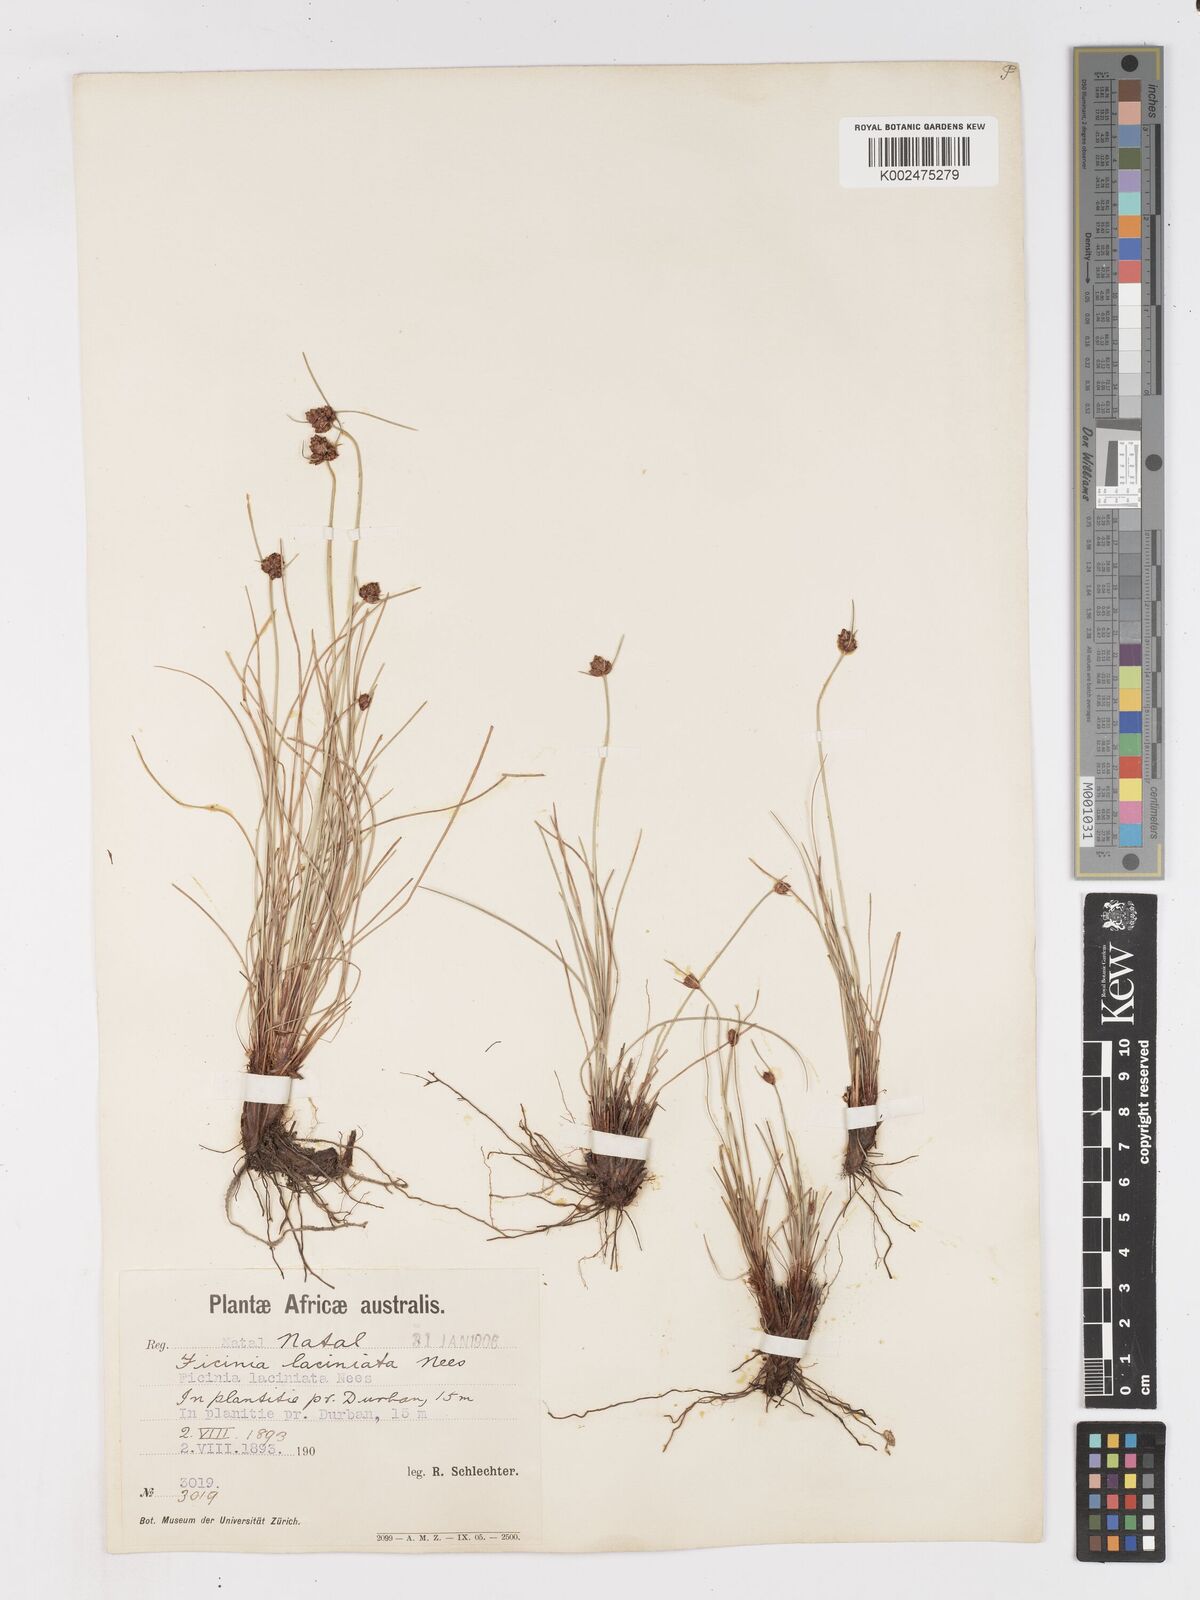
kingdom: Plantae
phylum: Tracheophyta
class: Liliopsida
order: Poales
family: Cyperaceae
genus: Ficinia
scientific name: Ficinia laciniata
